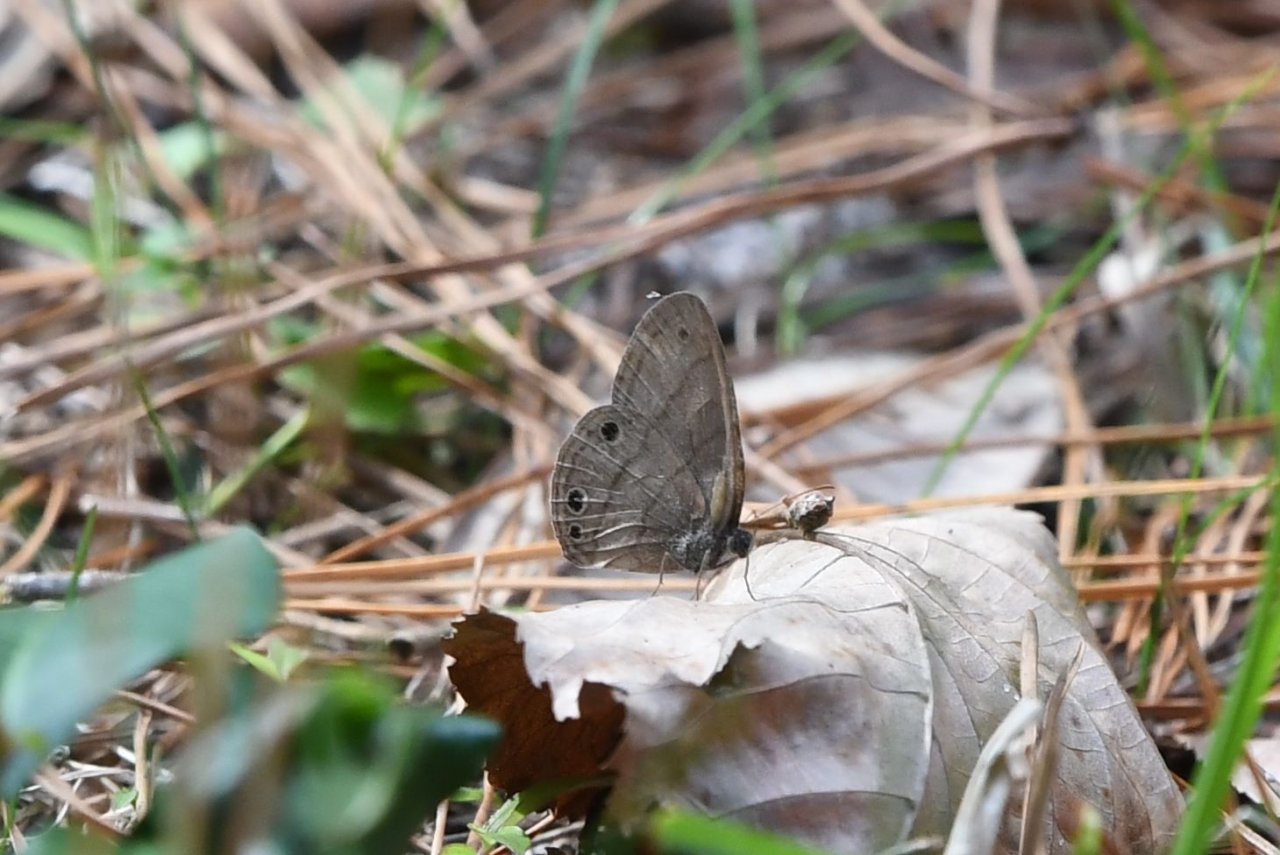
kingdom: Animalia
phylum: Arthropoda
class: Insecta
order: Lepidoptera
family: Nymphalidae
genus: Hermeuptychia
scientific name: Hermeuptychia hermes
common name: Carolina Satyr
